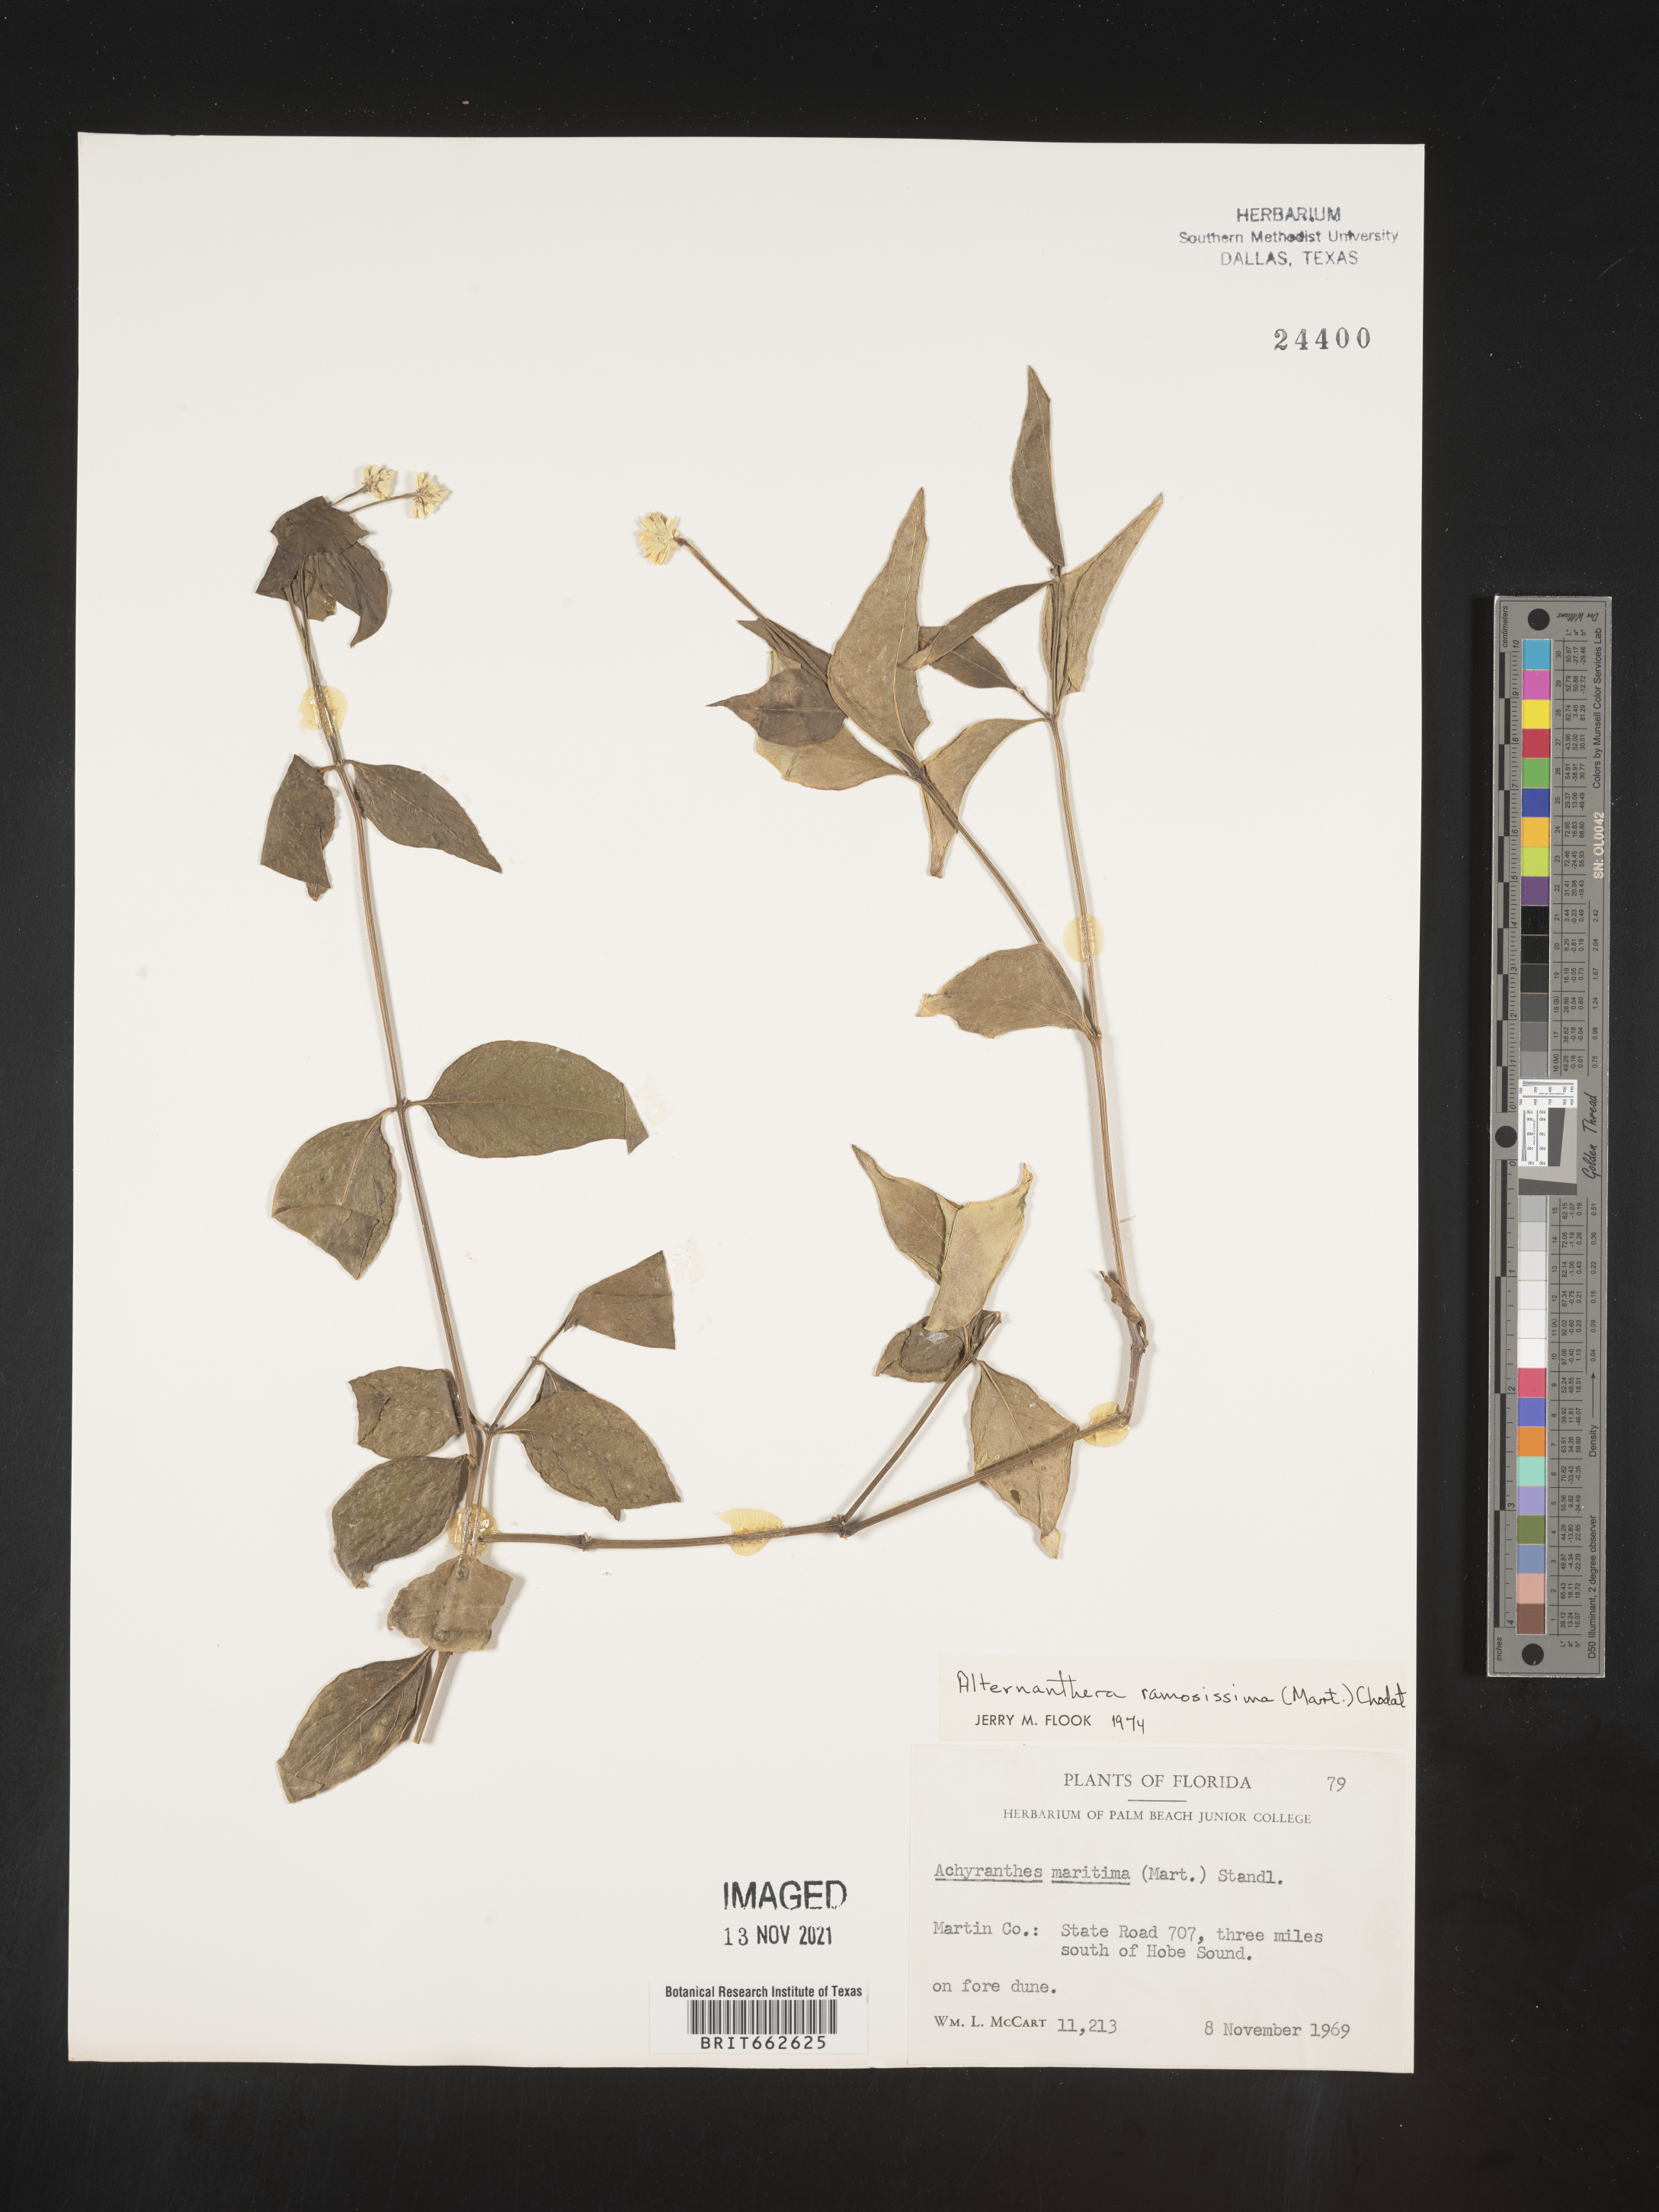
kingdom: Plantae
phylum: Tracheophyta
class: Magnoliopsida
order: Caryophyllales
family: Amaranthaceae
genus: Alternanthera
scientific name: Alternanthera ramosissima
